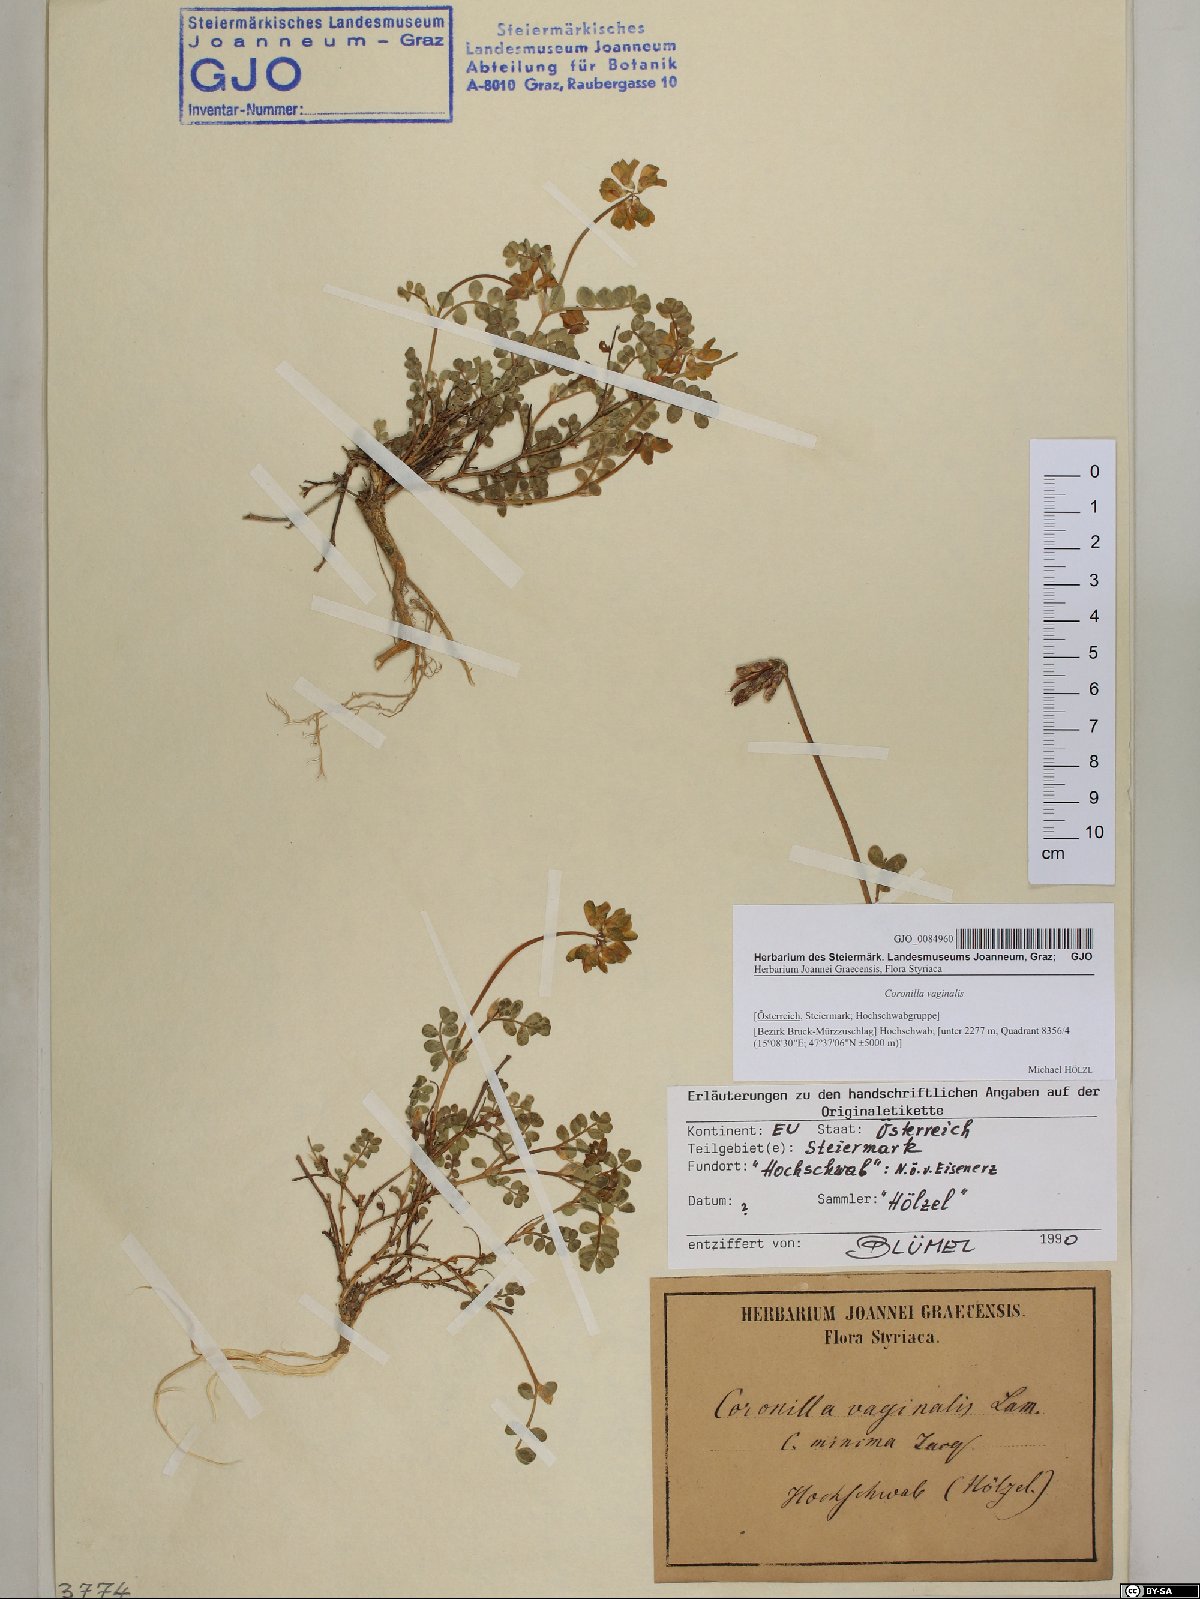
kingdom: Plantae
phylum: Tracheophyta
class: Magnoliopsida
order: Fabales
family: Fabaceae
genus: Coronilla
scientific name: Coronilla vaginalis
